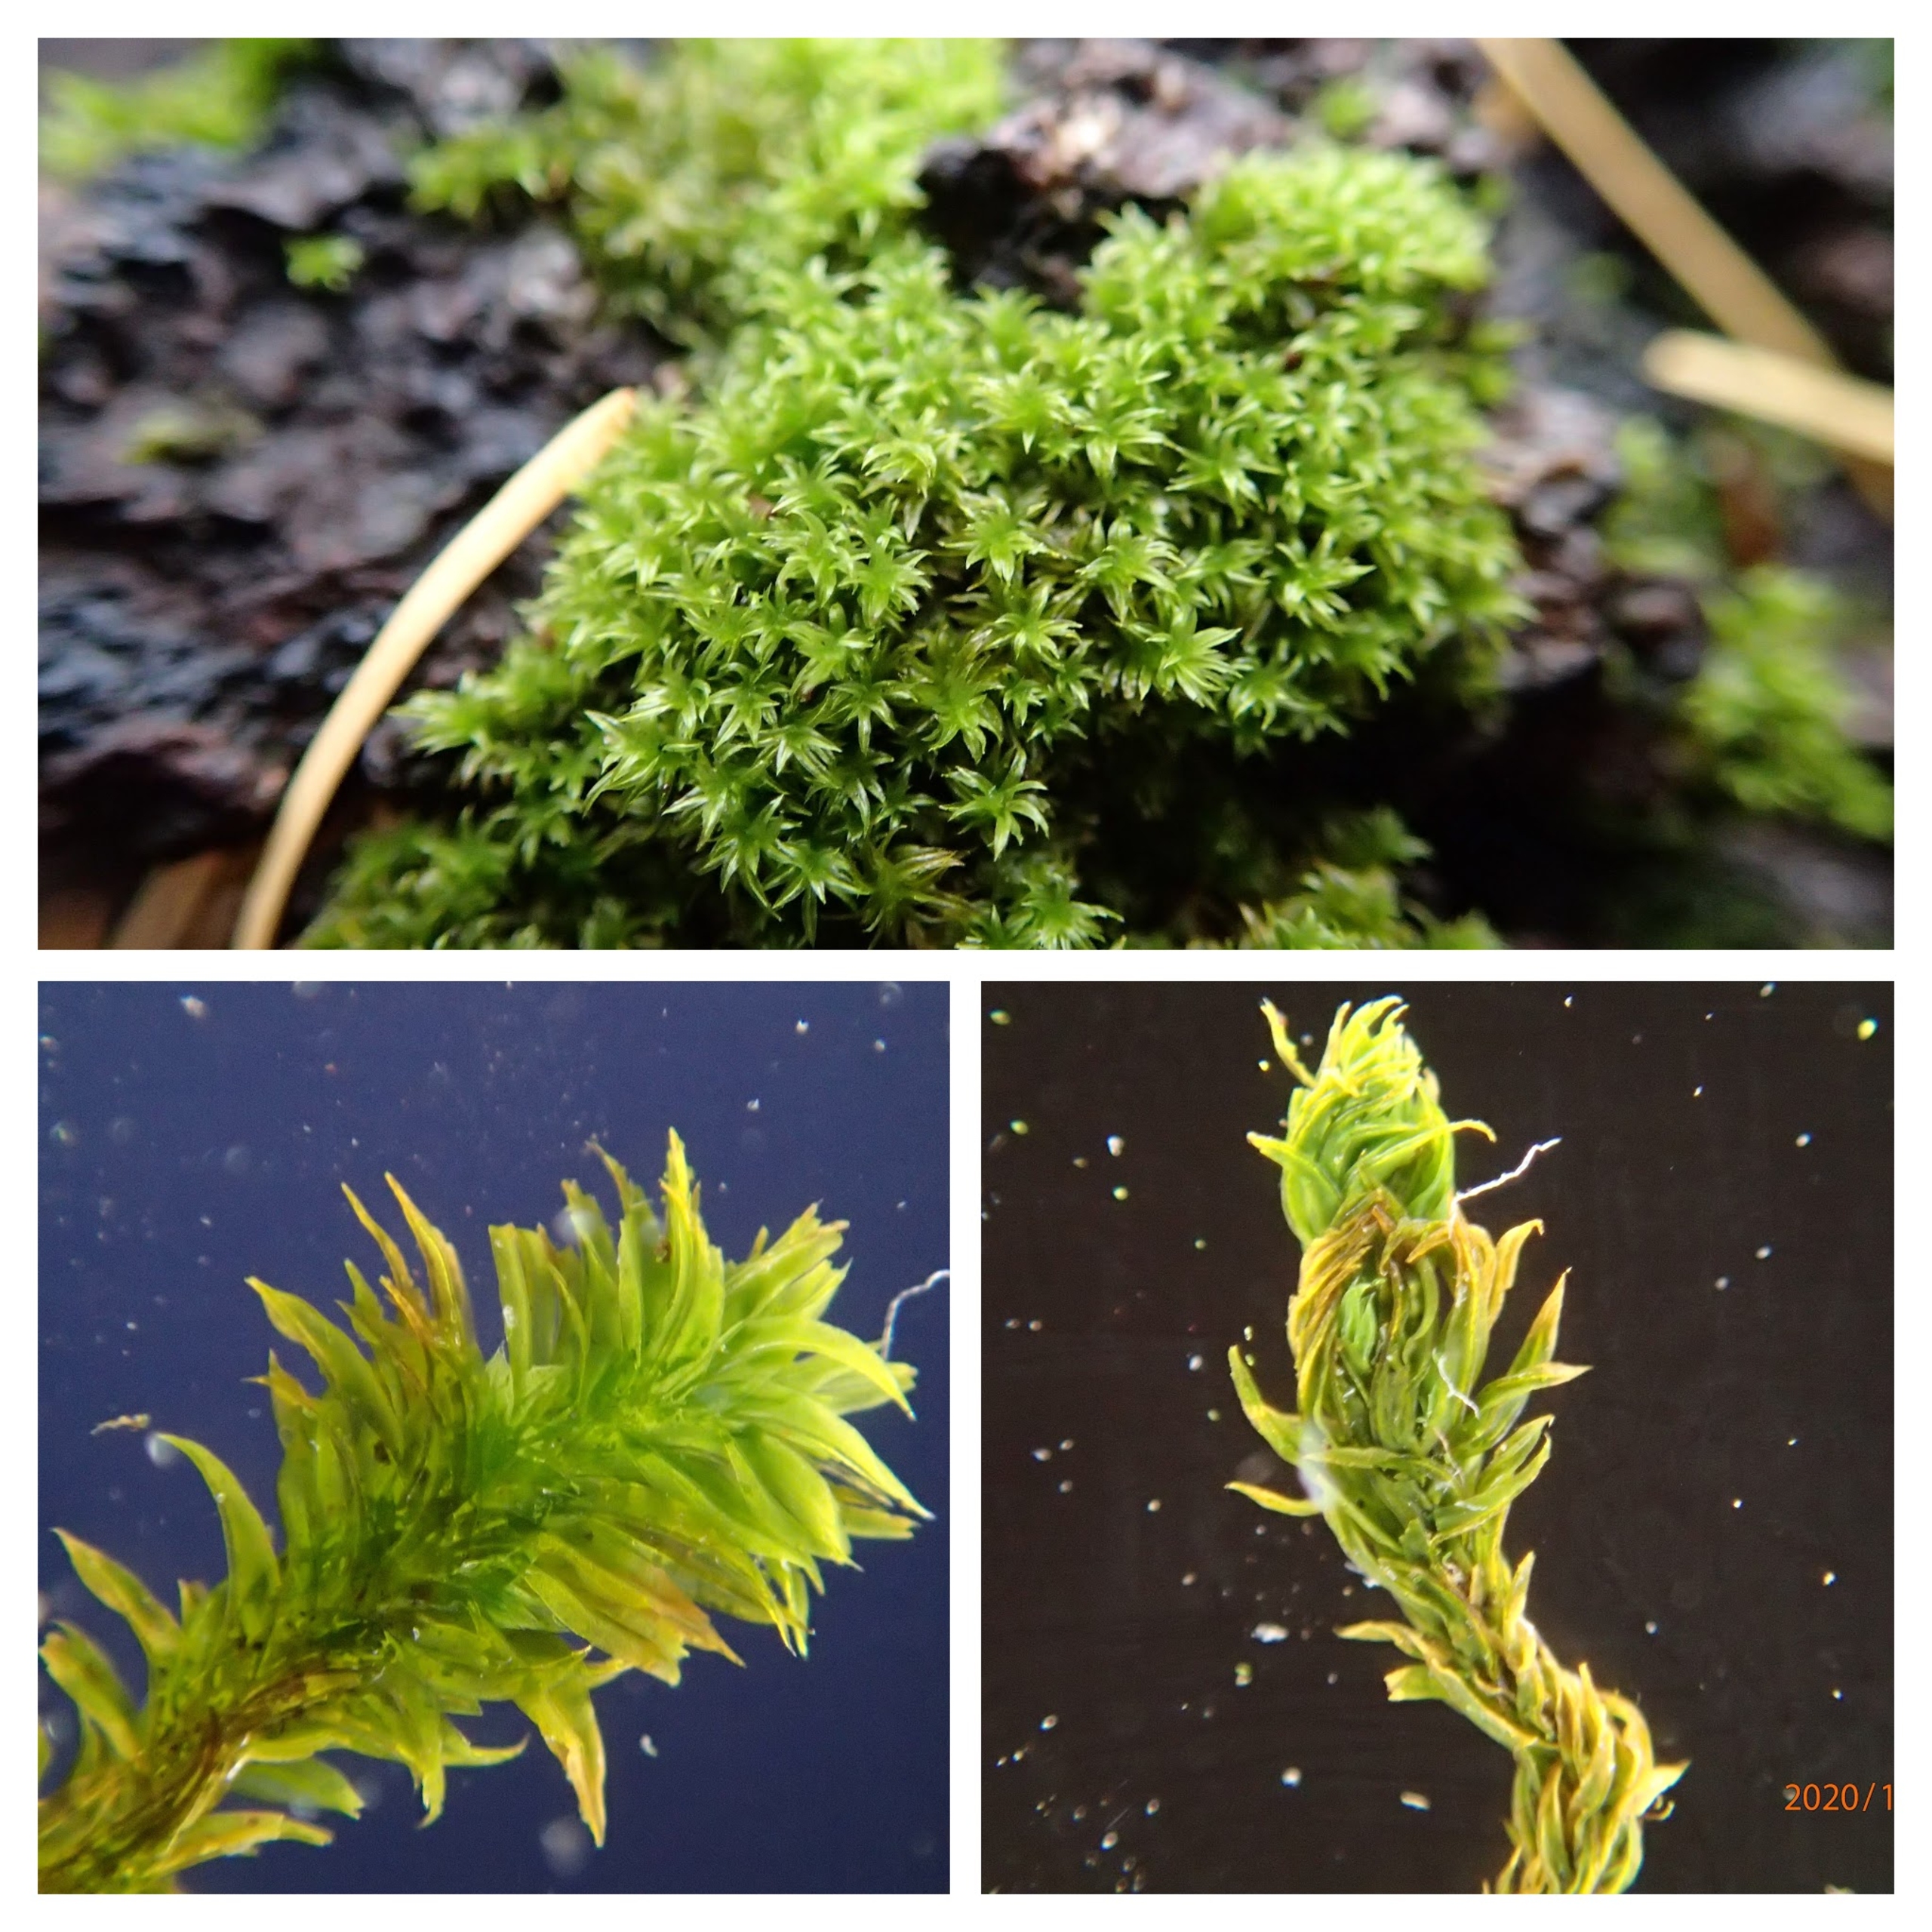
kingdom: Plantae
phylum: Bryophyta
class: Bryopsida
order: Orthotrichales
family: Orthotrichaceae
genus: Zygodon
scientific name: Zygodon rupestris
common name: Almindelig køllemos
